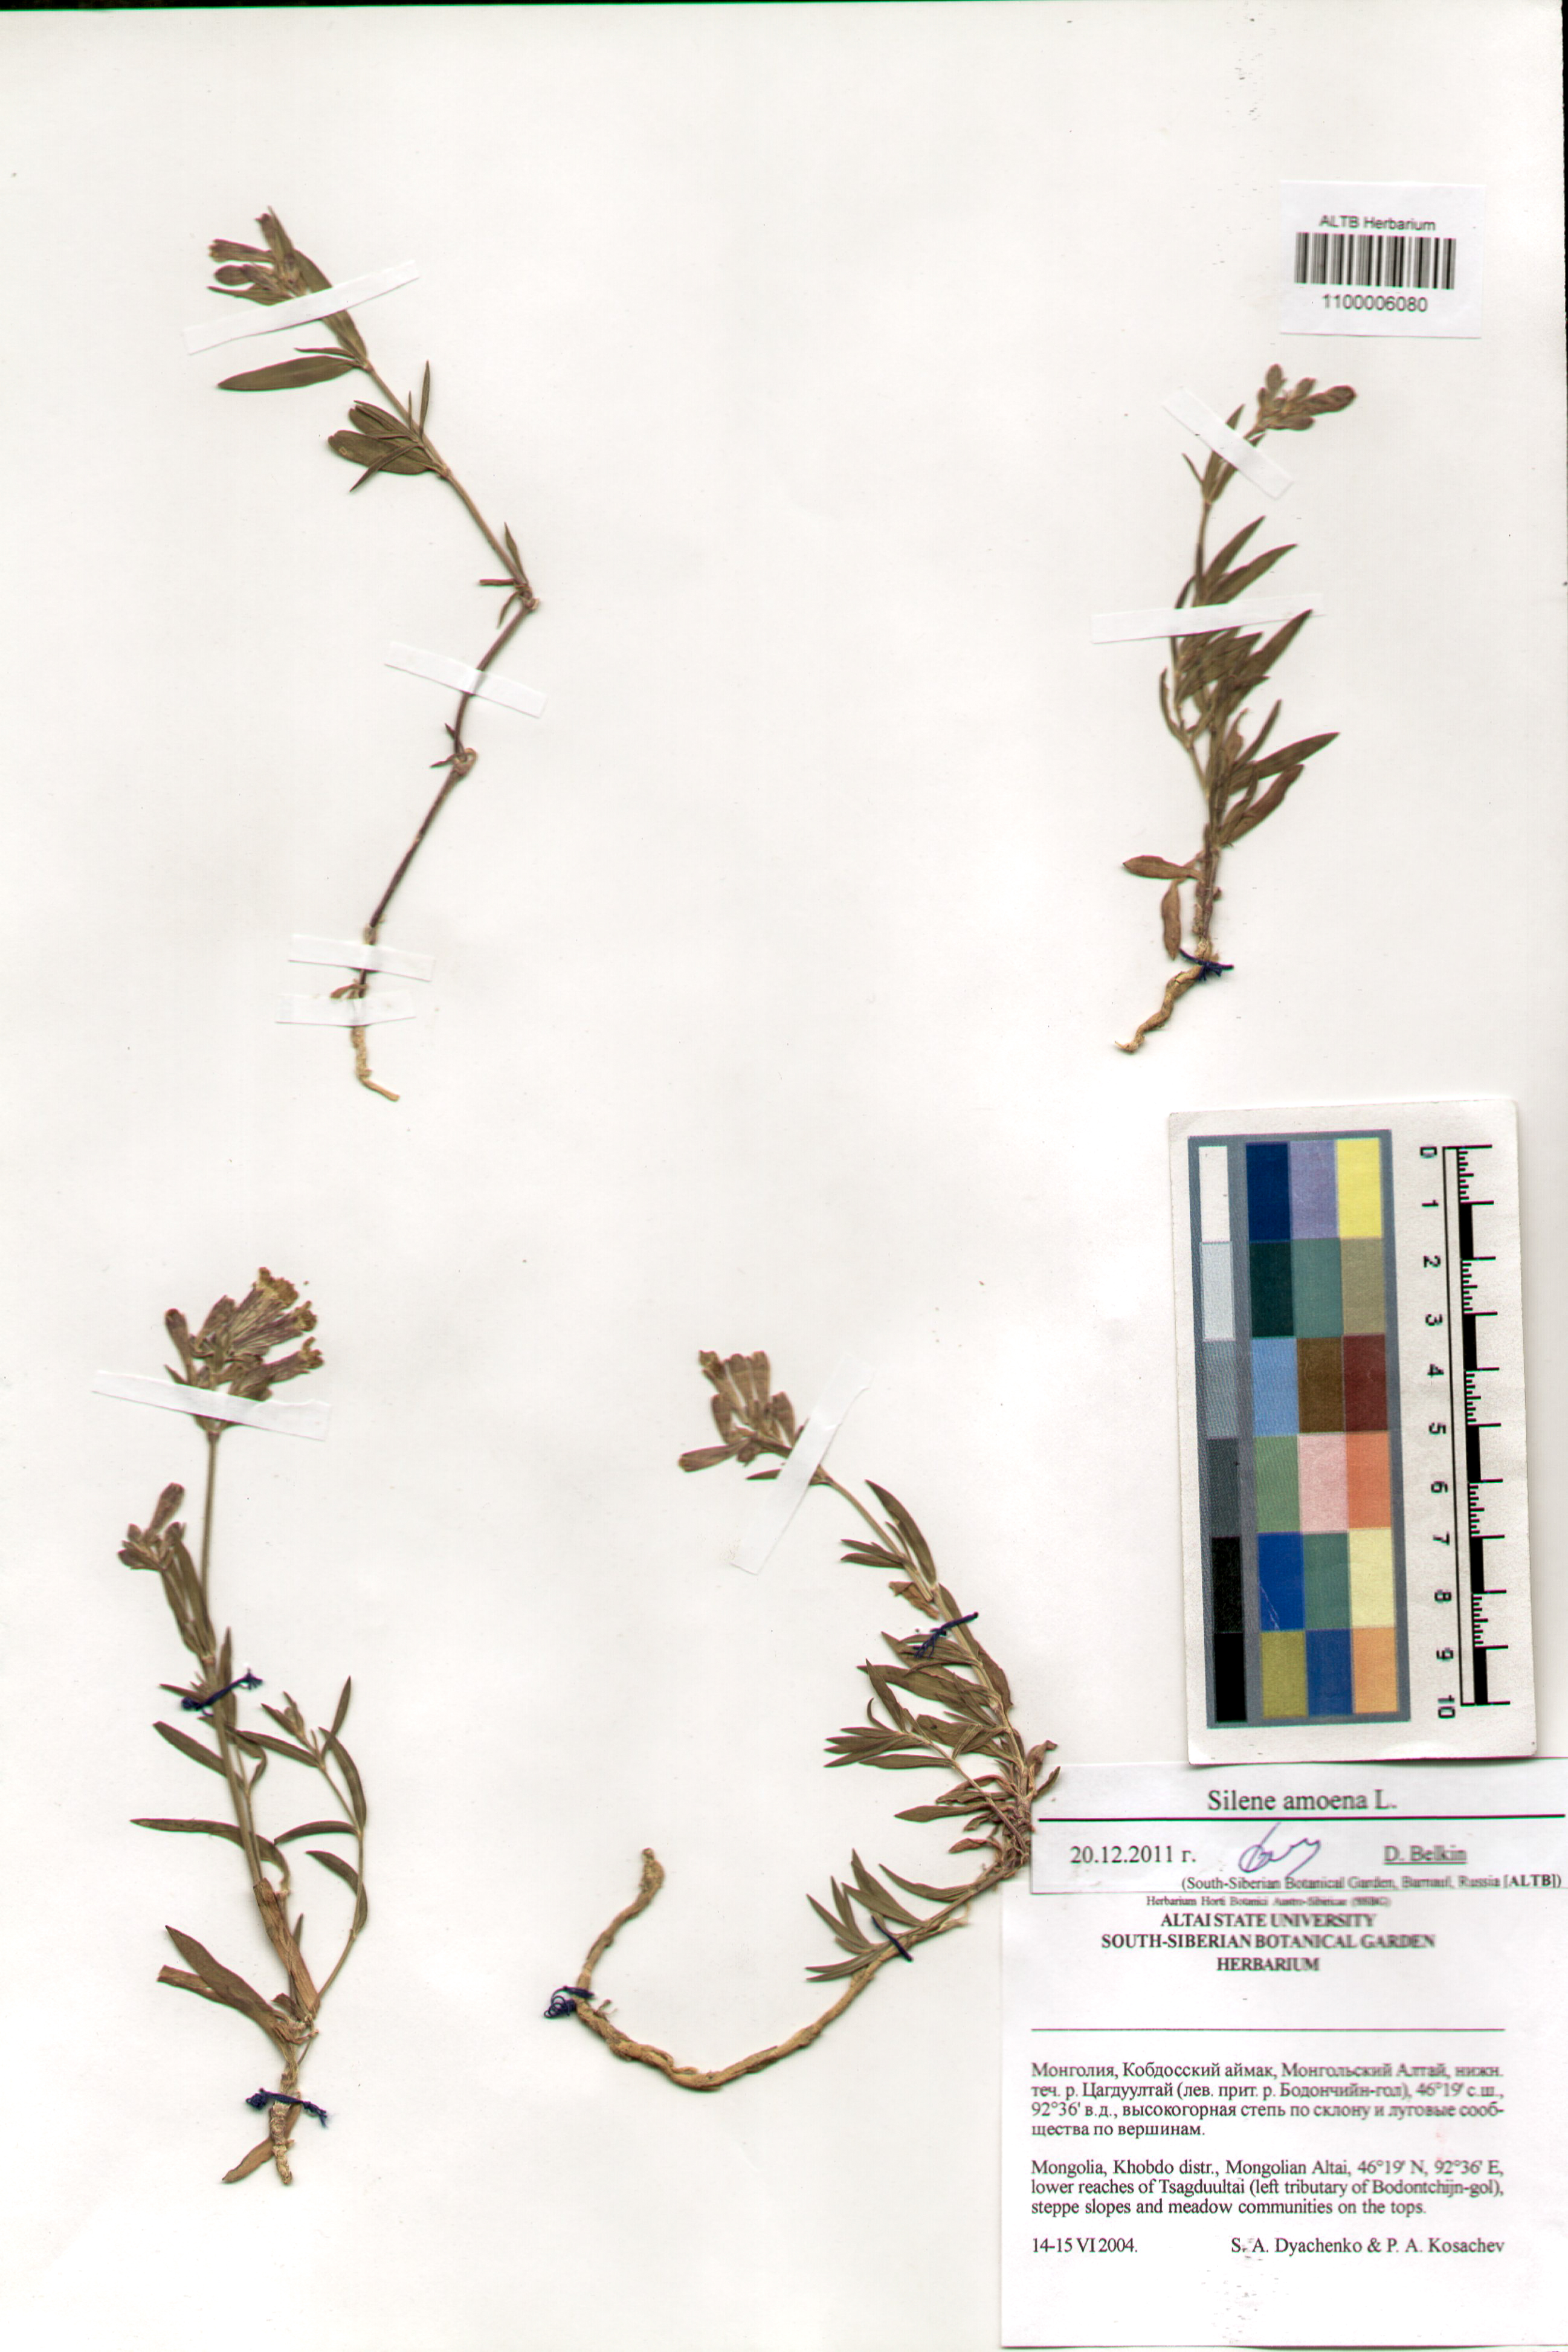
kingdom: Plantae
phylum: Tracheophyta
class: Magnoliopsida
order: Caryophyllales
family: Caryophyllaceae
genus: Silene
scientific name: Silene amoena
